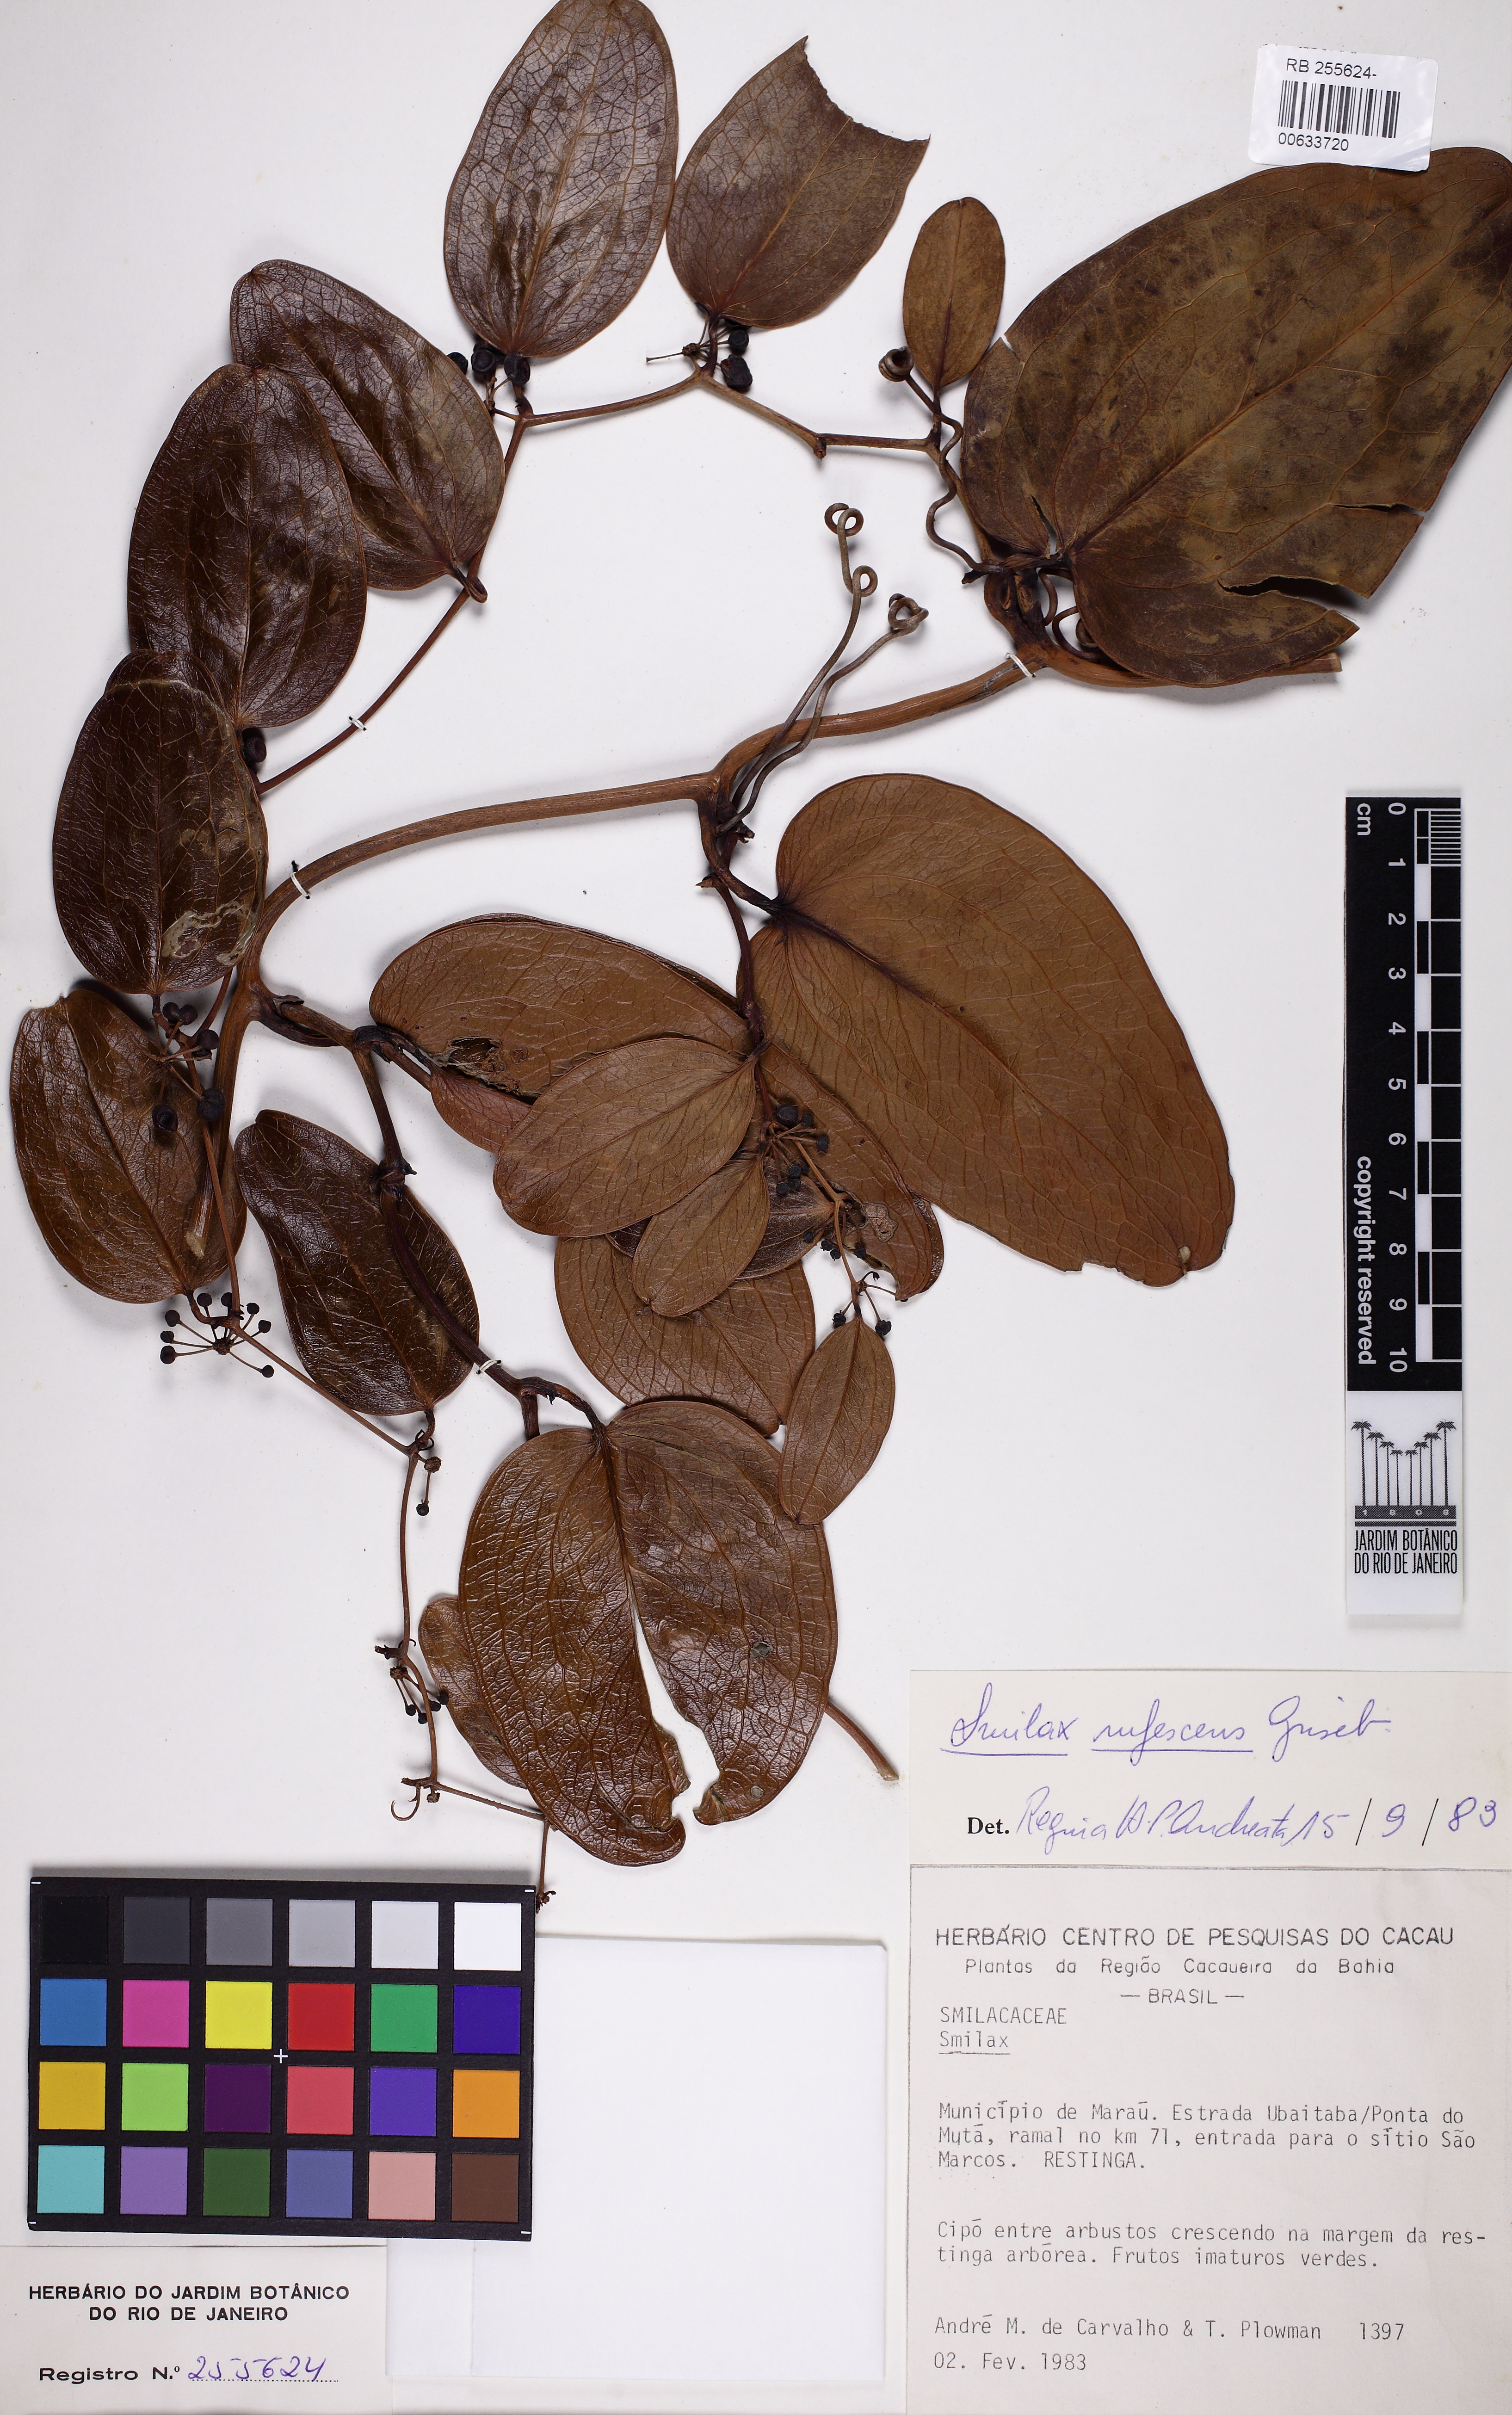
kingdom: Plantae
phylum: Tracheophyta
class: Liliopsida
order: Liliales
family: Smilacaceae
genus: Smilax
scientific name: Smilax rufescens
